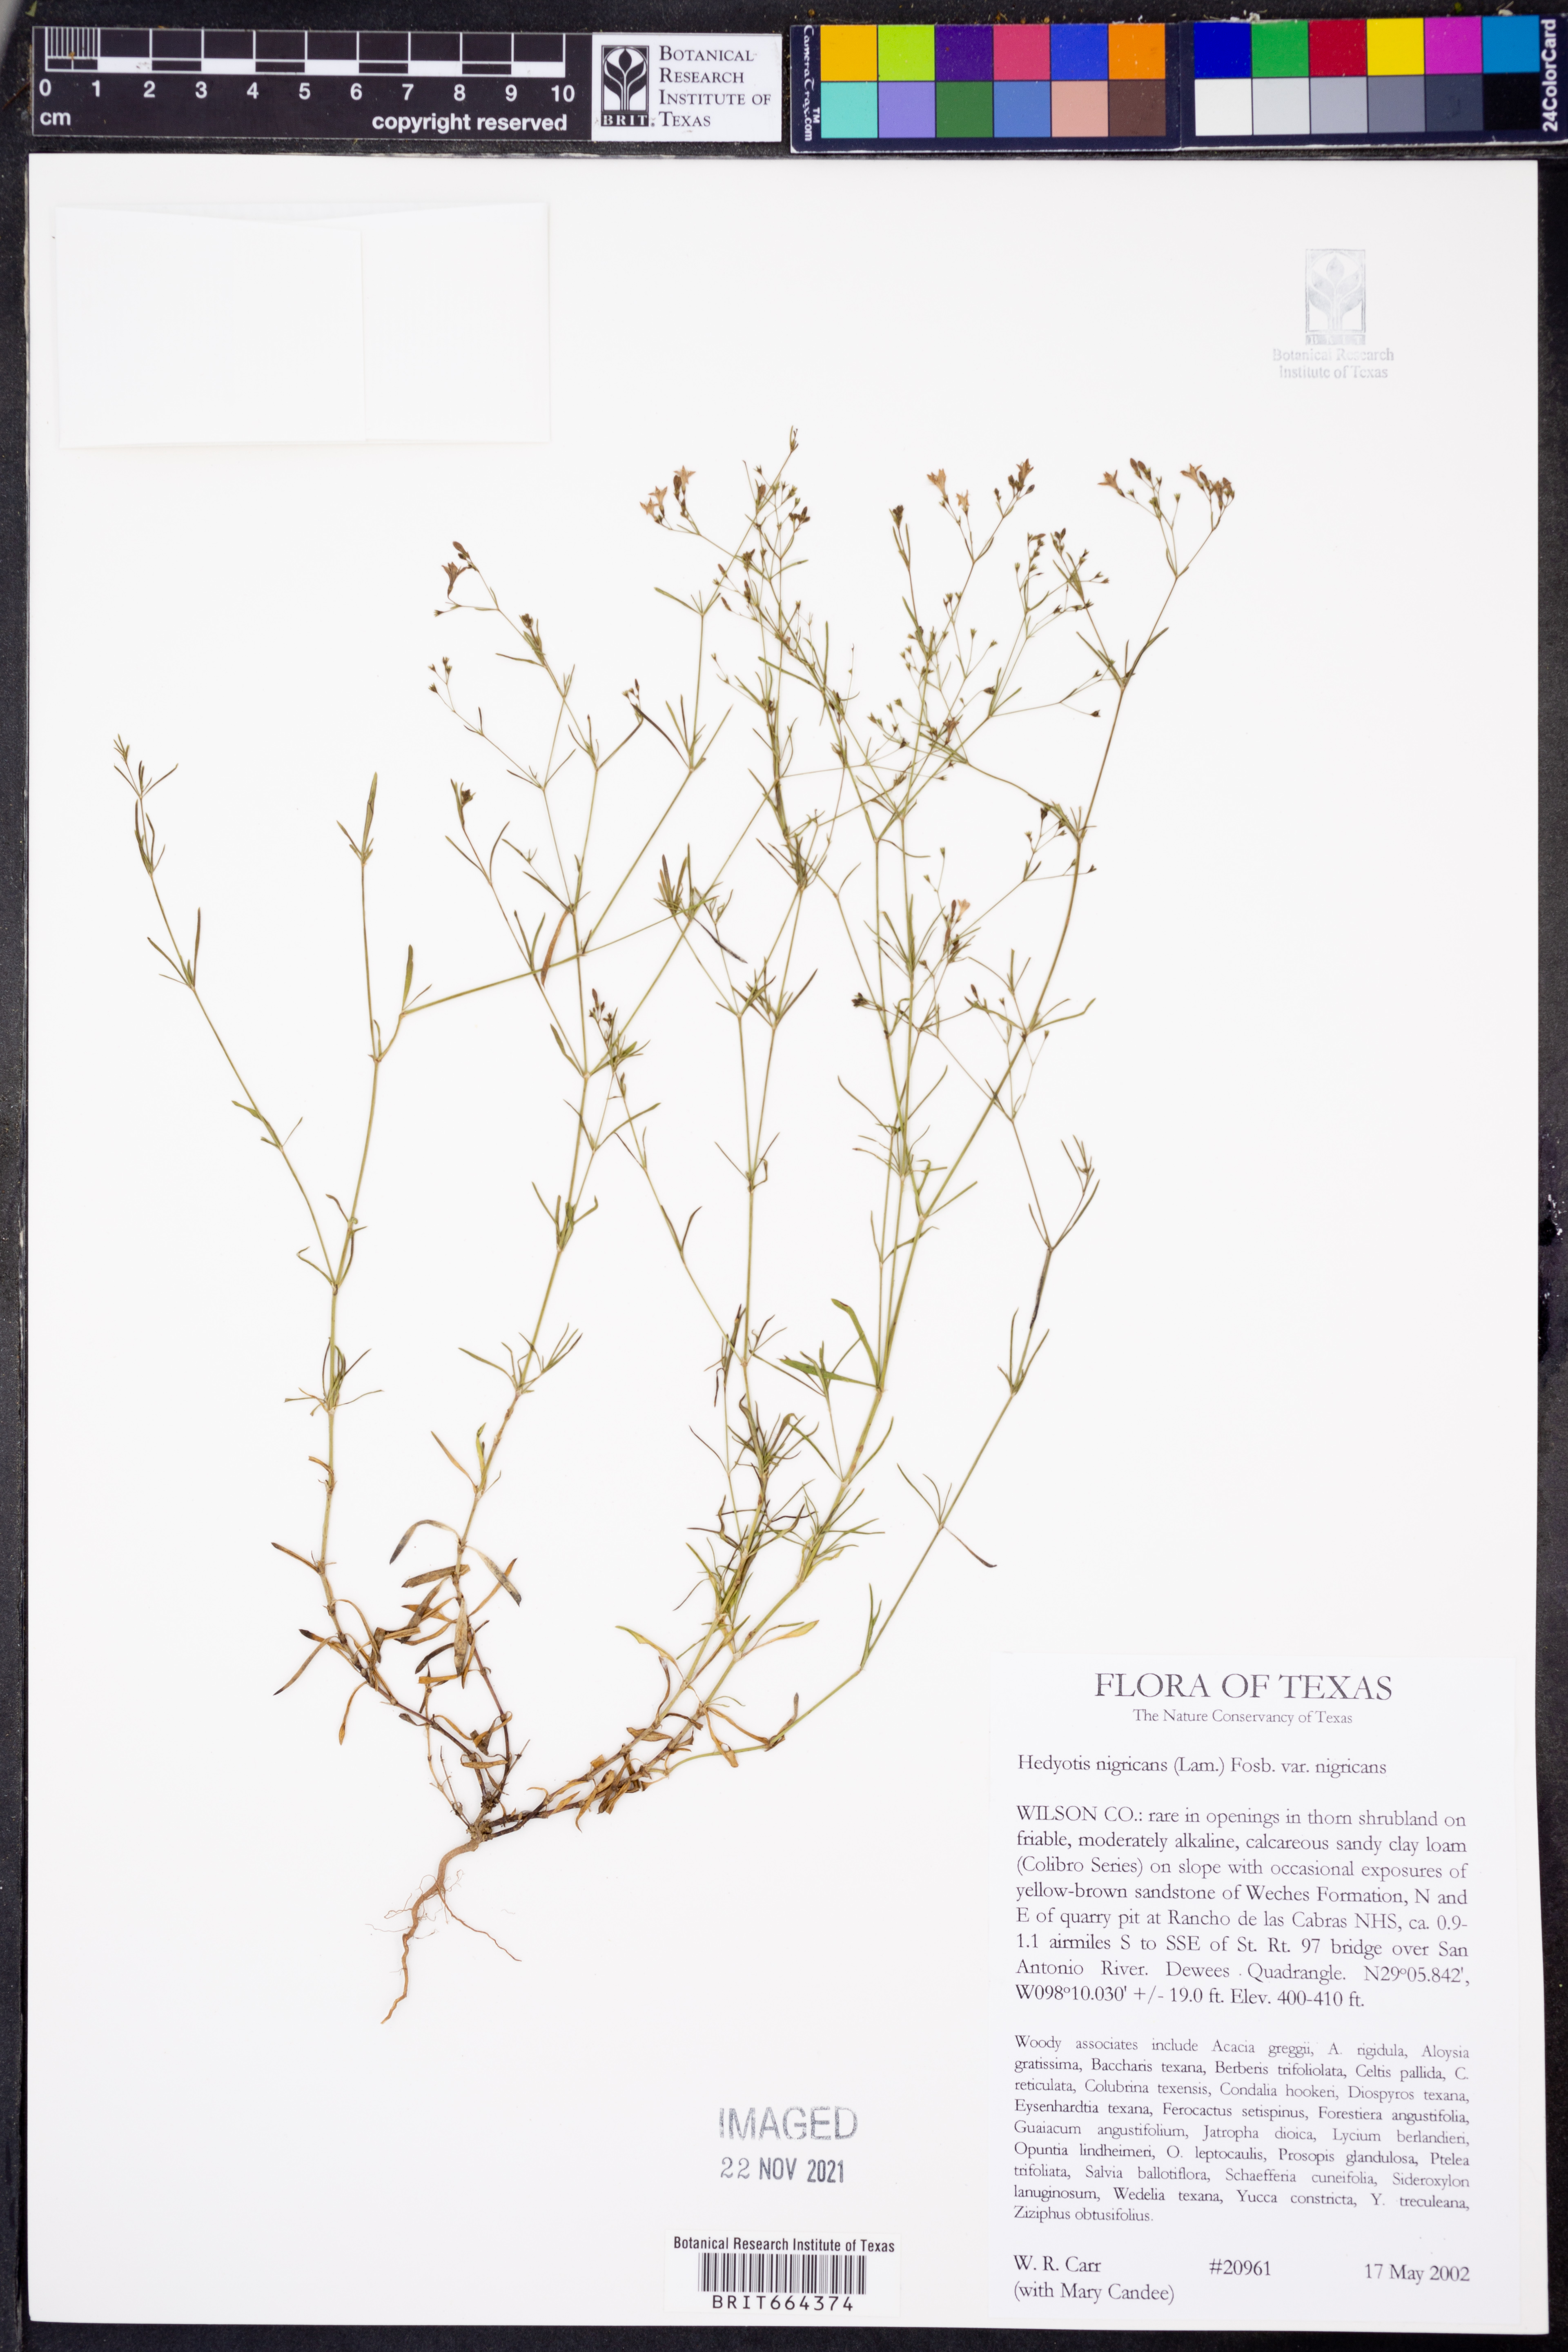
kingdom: Plantae
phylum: Tracheophyta
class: Magnoliopsida
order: Gentianales
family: Rubiaceae
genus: Stenaria
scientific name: Stenaria nigricans
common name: Diamondflowers
